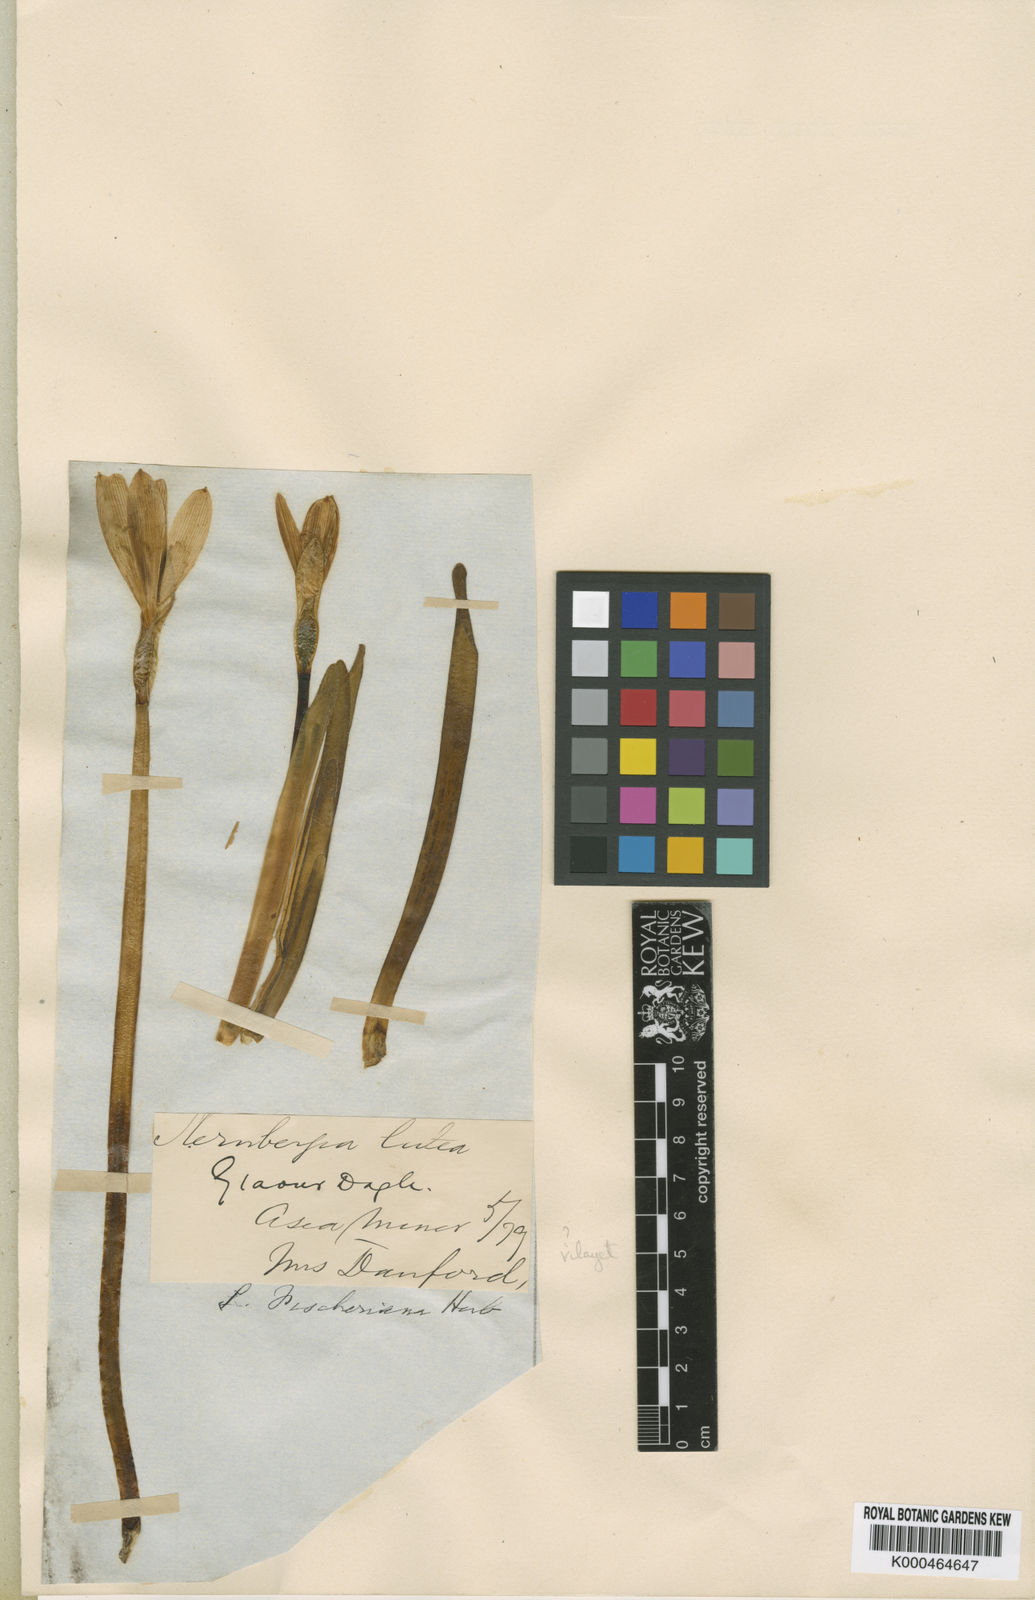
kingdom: Plantae
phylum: Tracheophyta
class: Liliopsida
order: Asparagales
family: Amaryllidaceae
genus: Sternbergia
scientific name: Sternbergia vernalis
